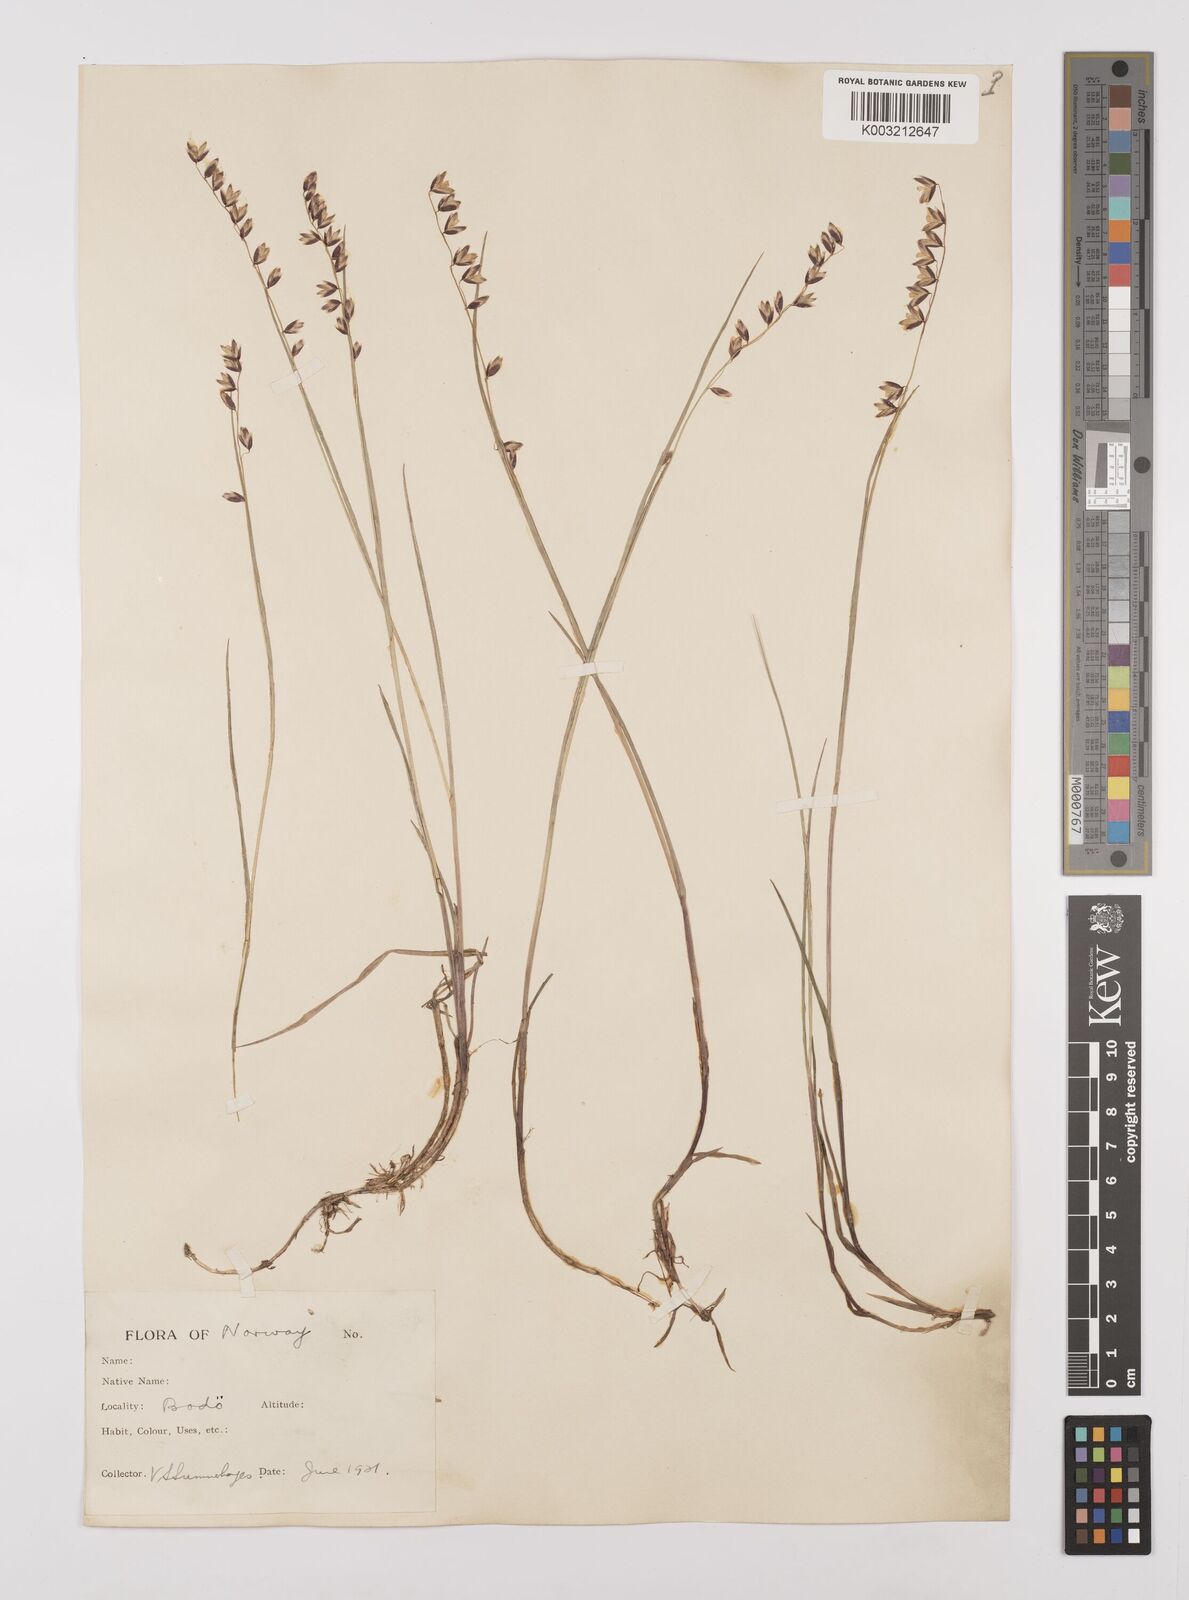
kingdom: Plantae
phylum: Tracheophyta
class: Liliopsida
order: Poales
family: Poaceae
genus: Melica
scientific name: Melica
